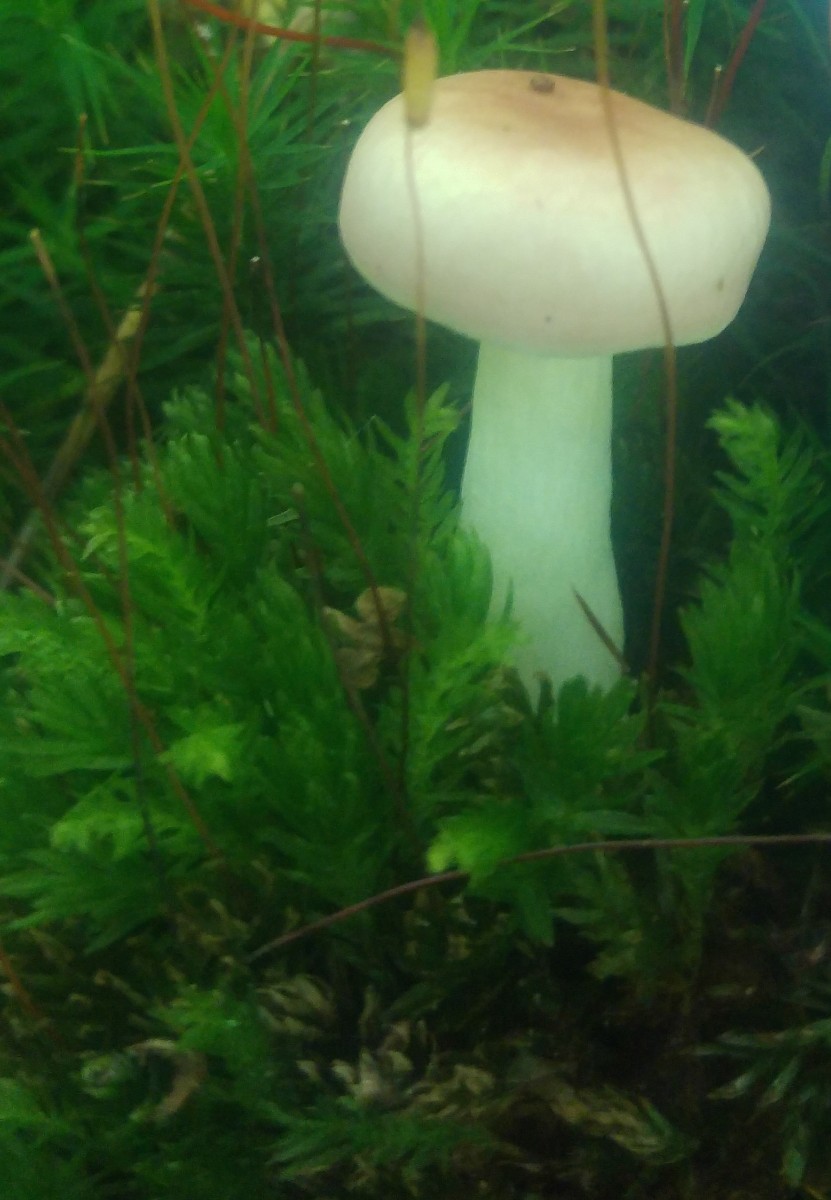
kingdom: Fungi
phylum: Basidiomycota
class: Agaricomycetes
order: Russulales
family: Russulaceae
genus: Russula
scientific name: Russula betularum
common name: bleg gift-skørhat
